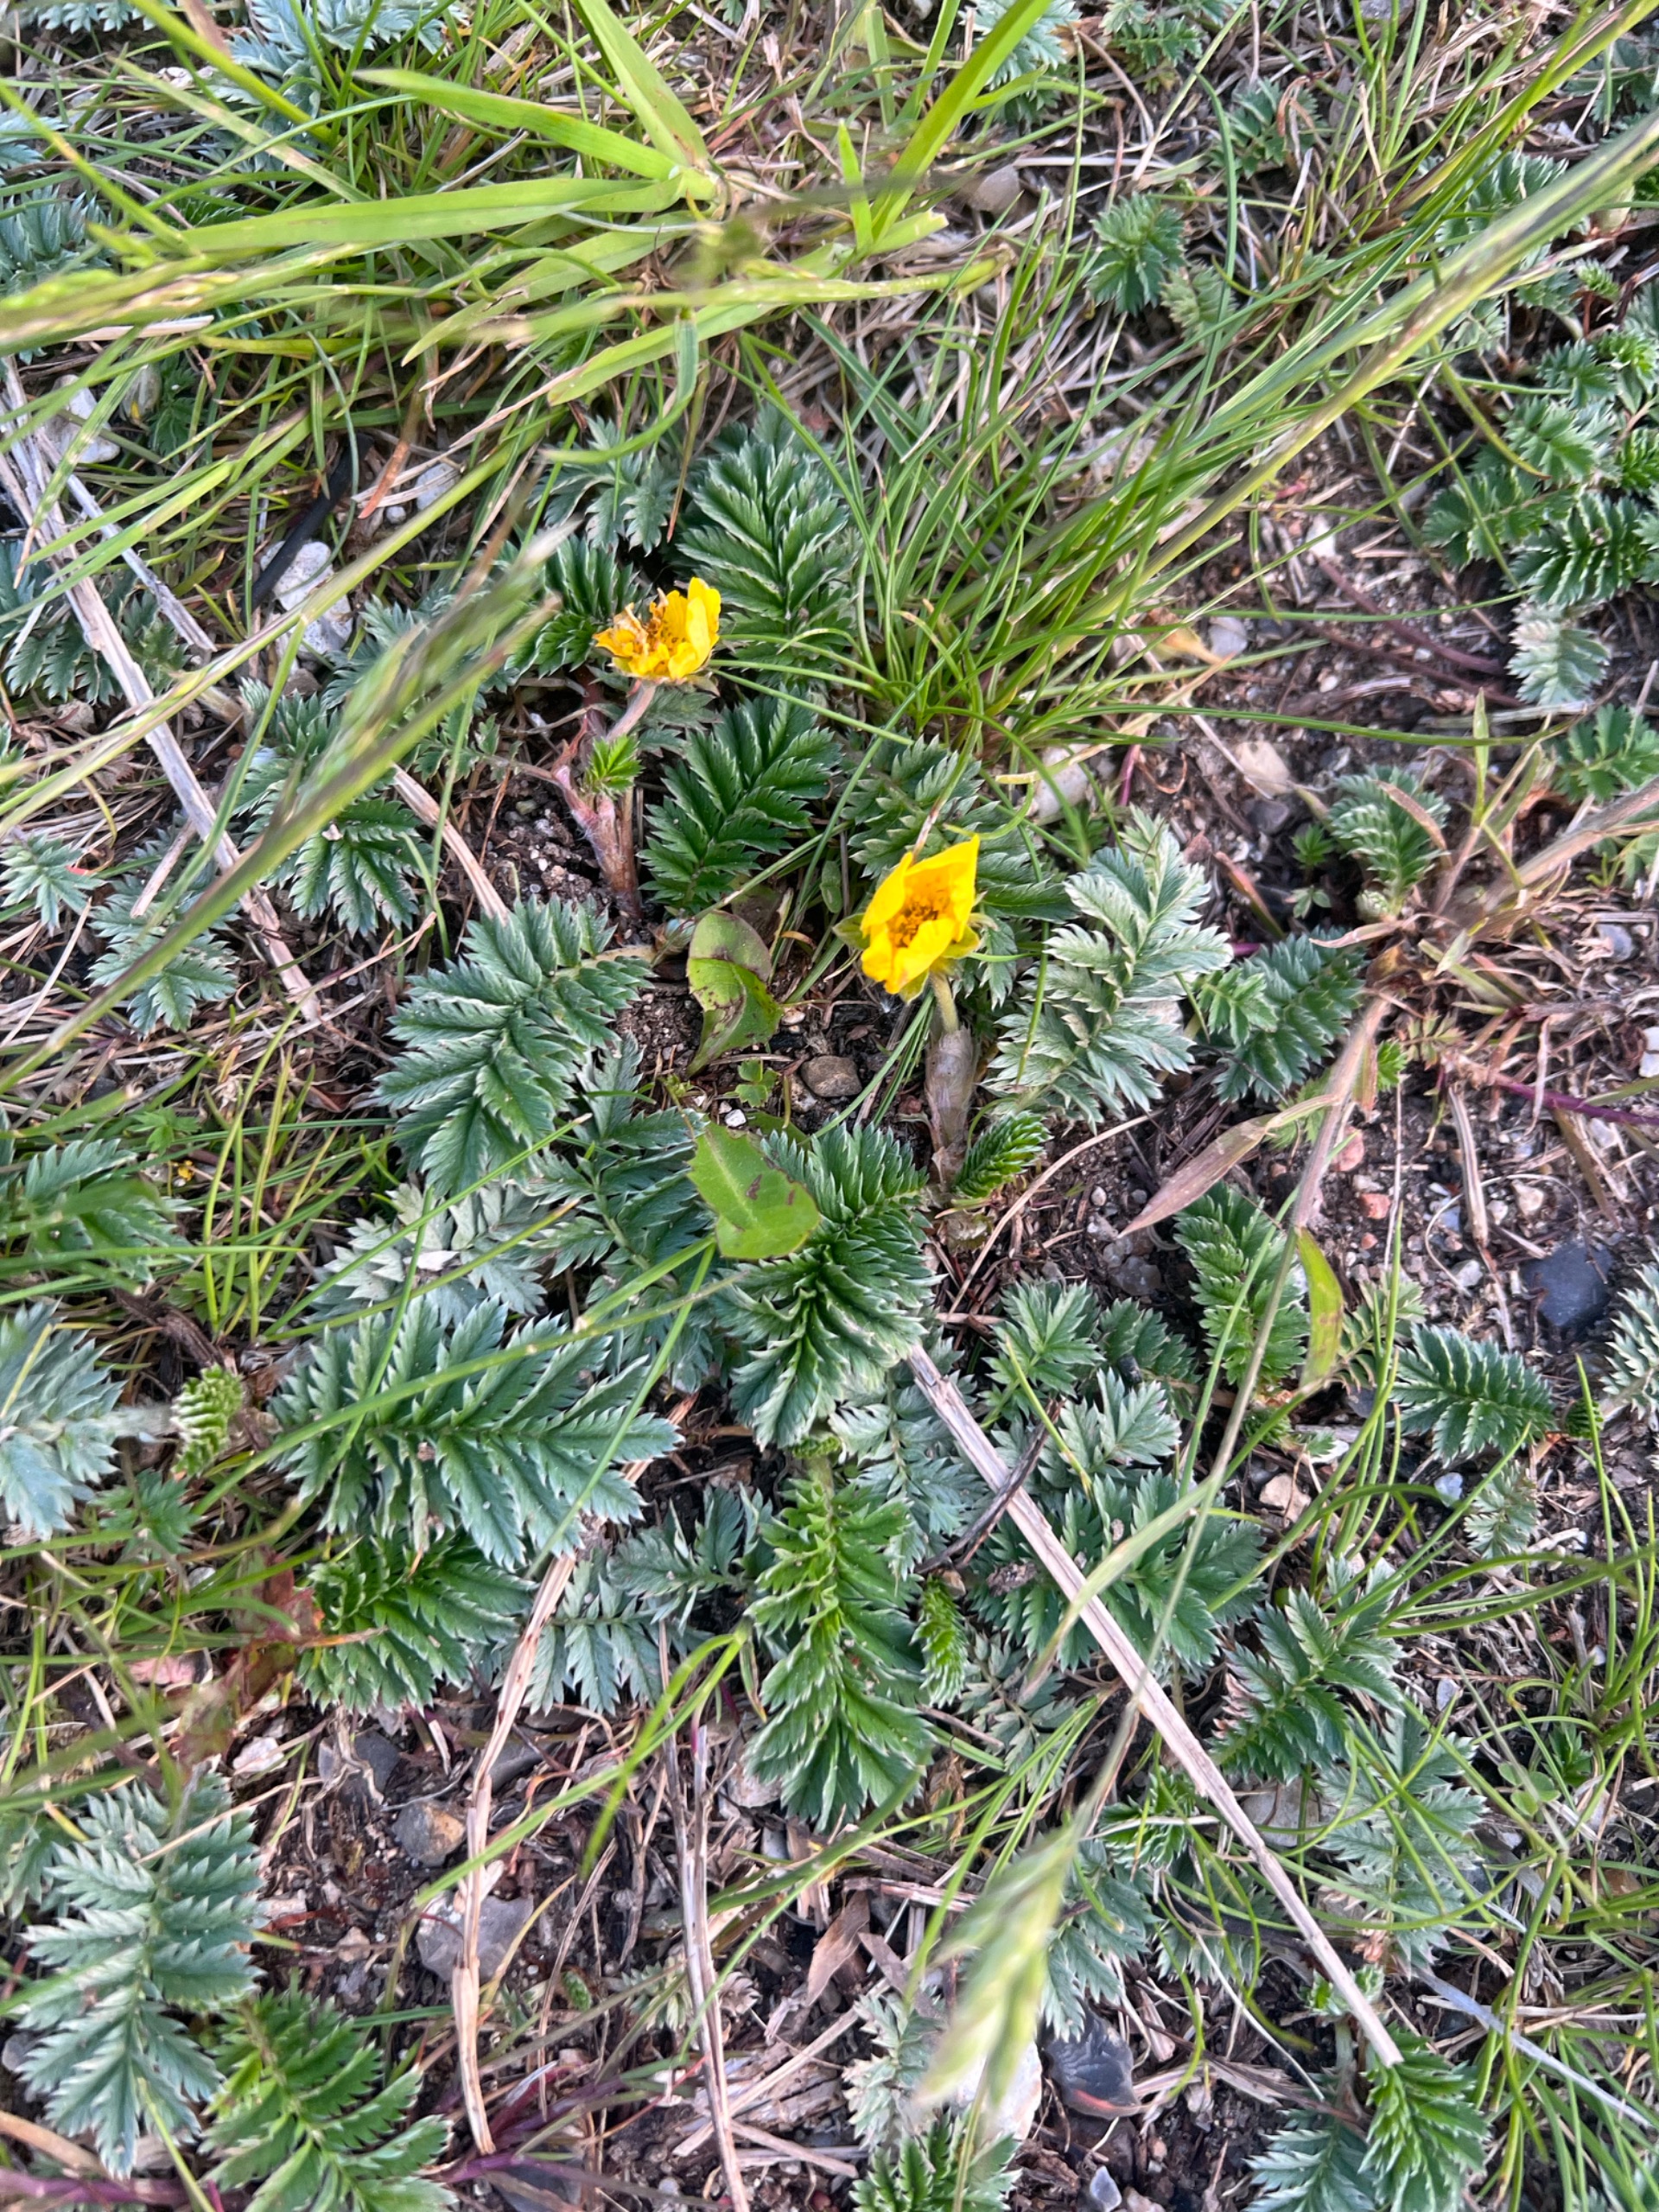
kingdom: Plantae
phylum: Tracheophyta
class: Magnoliopsida
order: Rosales
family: Rosaceae
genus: Argentina
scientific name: Argentina anserina
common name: Gåsepotentil
